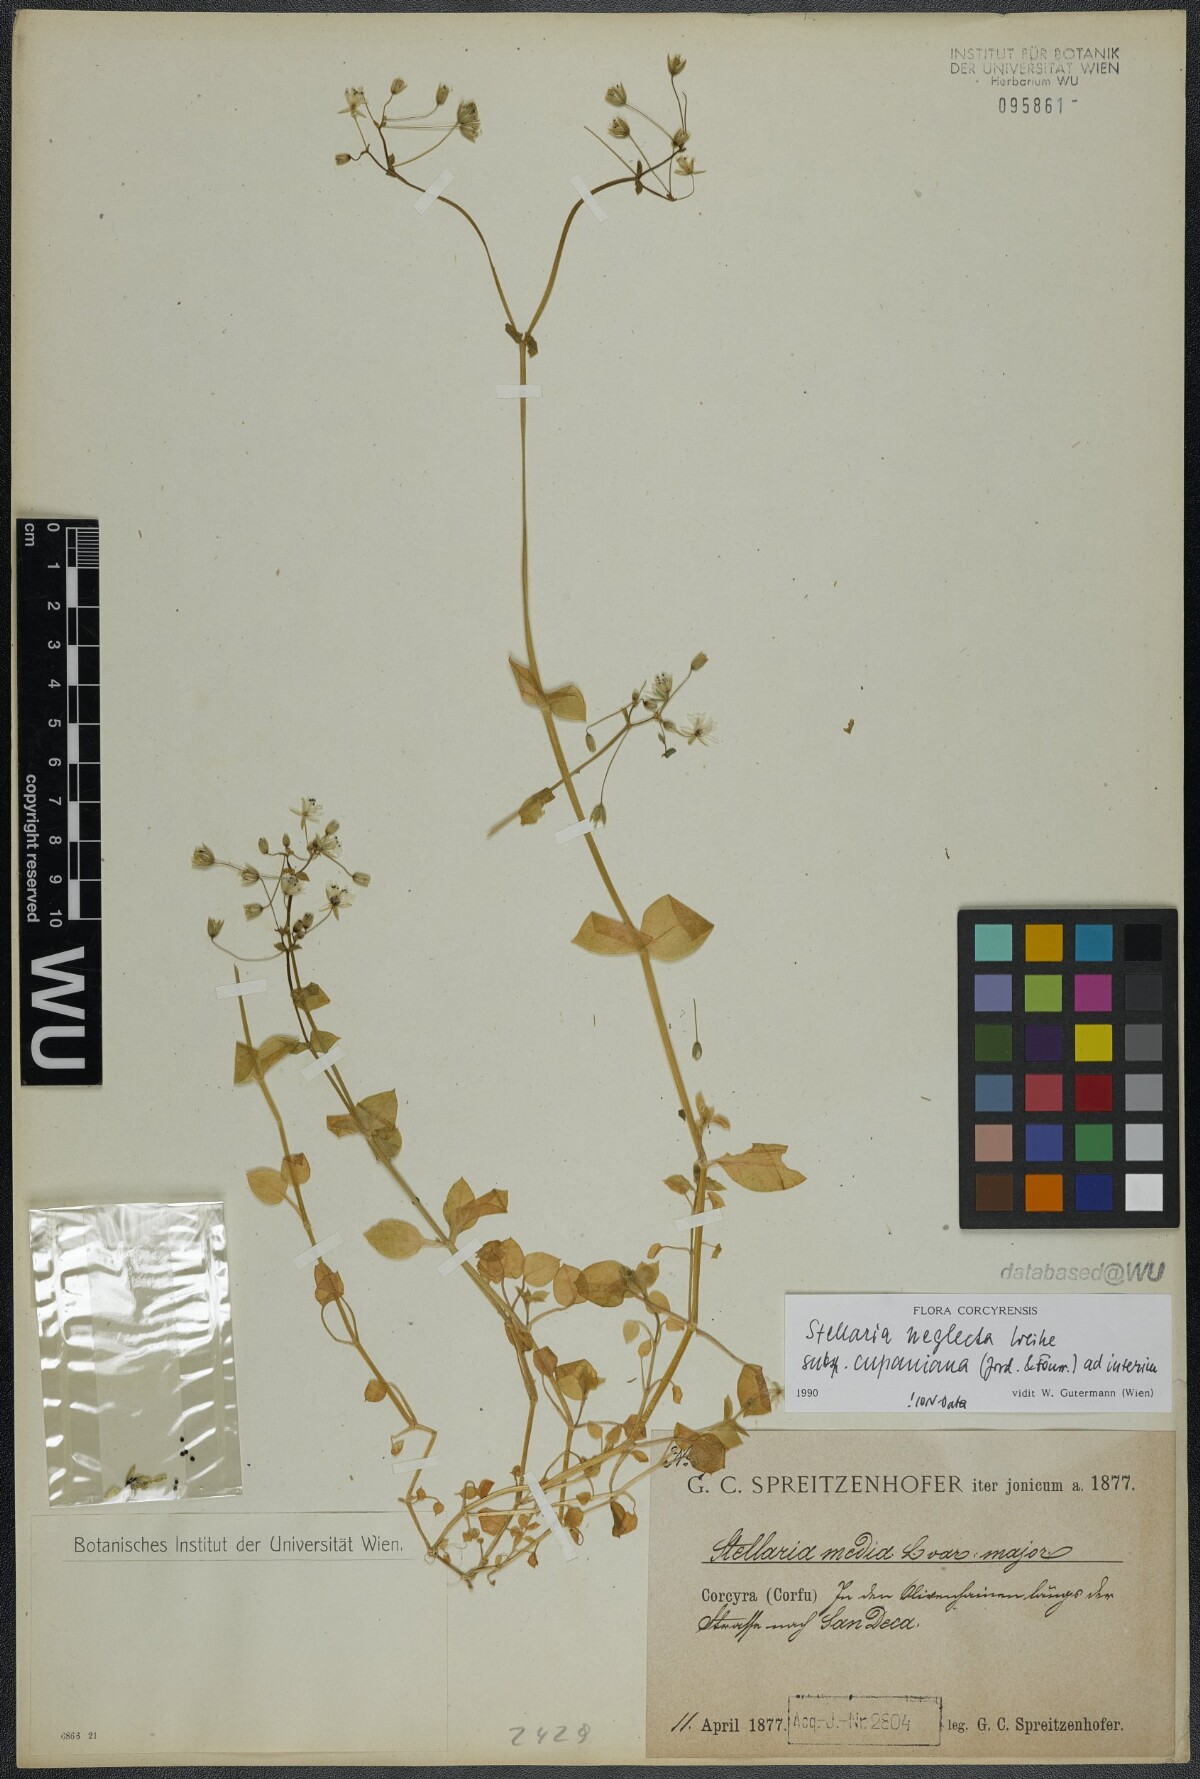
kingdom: Plantae
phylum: Tracheophyta
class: Magnoliopsida
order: Caryophyllales
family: Caryophyllaceae
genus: Stellaria
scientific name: Stellaria cupaniana
